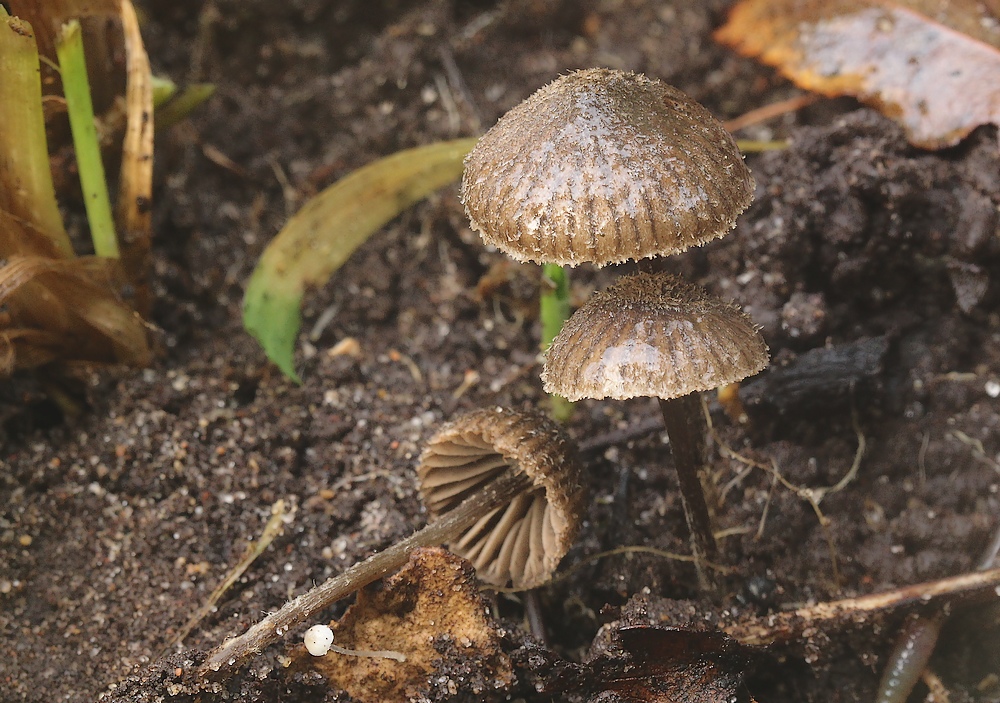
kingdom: Fungi
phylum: Basidiomycota
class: Agaricomycetes
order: Agaricales
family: Entolomataceae
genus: Entoloma
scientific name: Entoloma dysthales
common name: gråhåret rødblad
